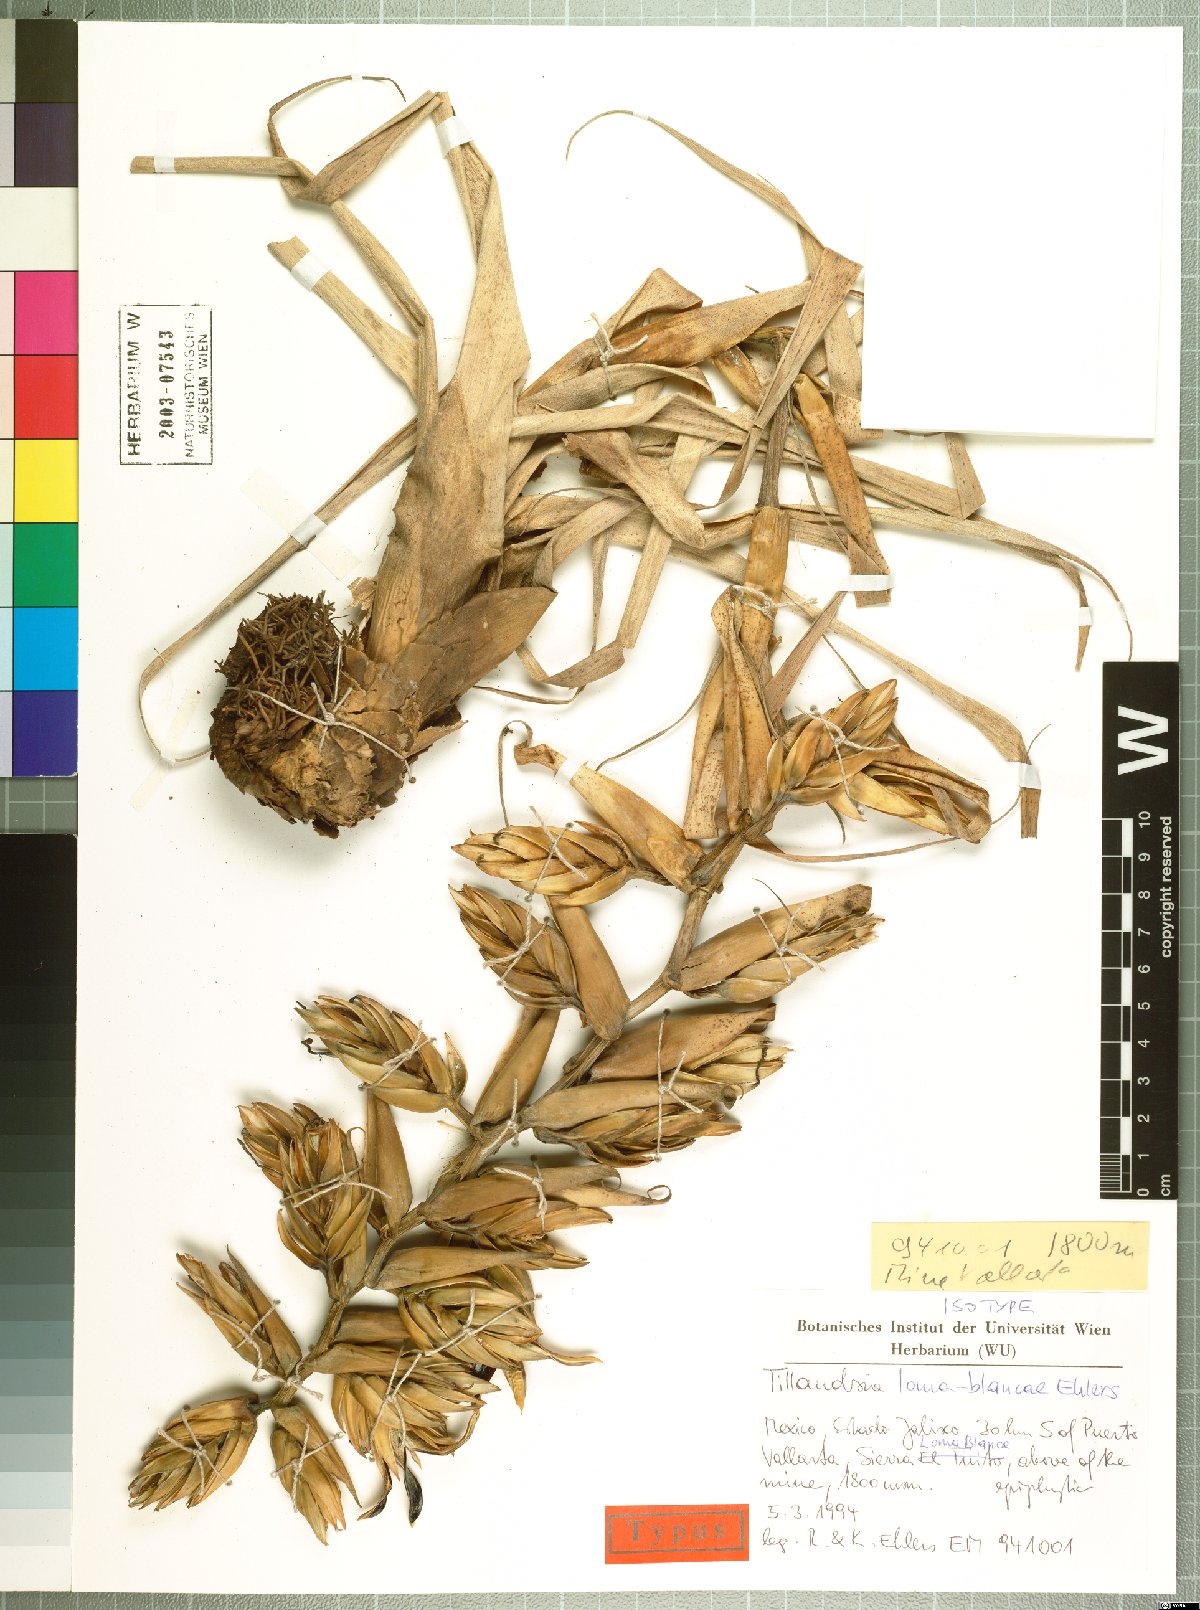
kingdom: Plantae
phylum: Tracheophyta
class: Liliopsida
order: Poales
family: Bromeliaceae
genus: Tillandsia
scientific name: Tillandsia loma-blancae
